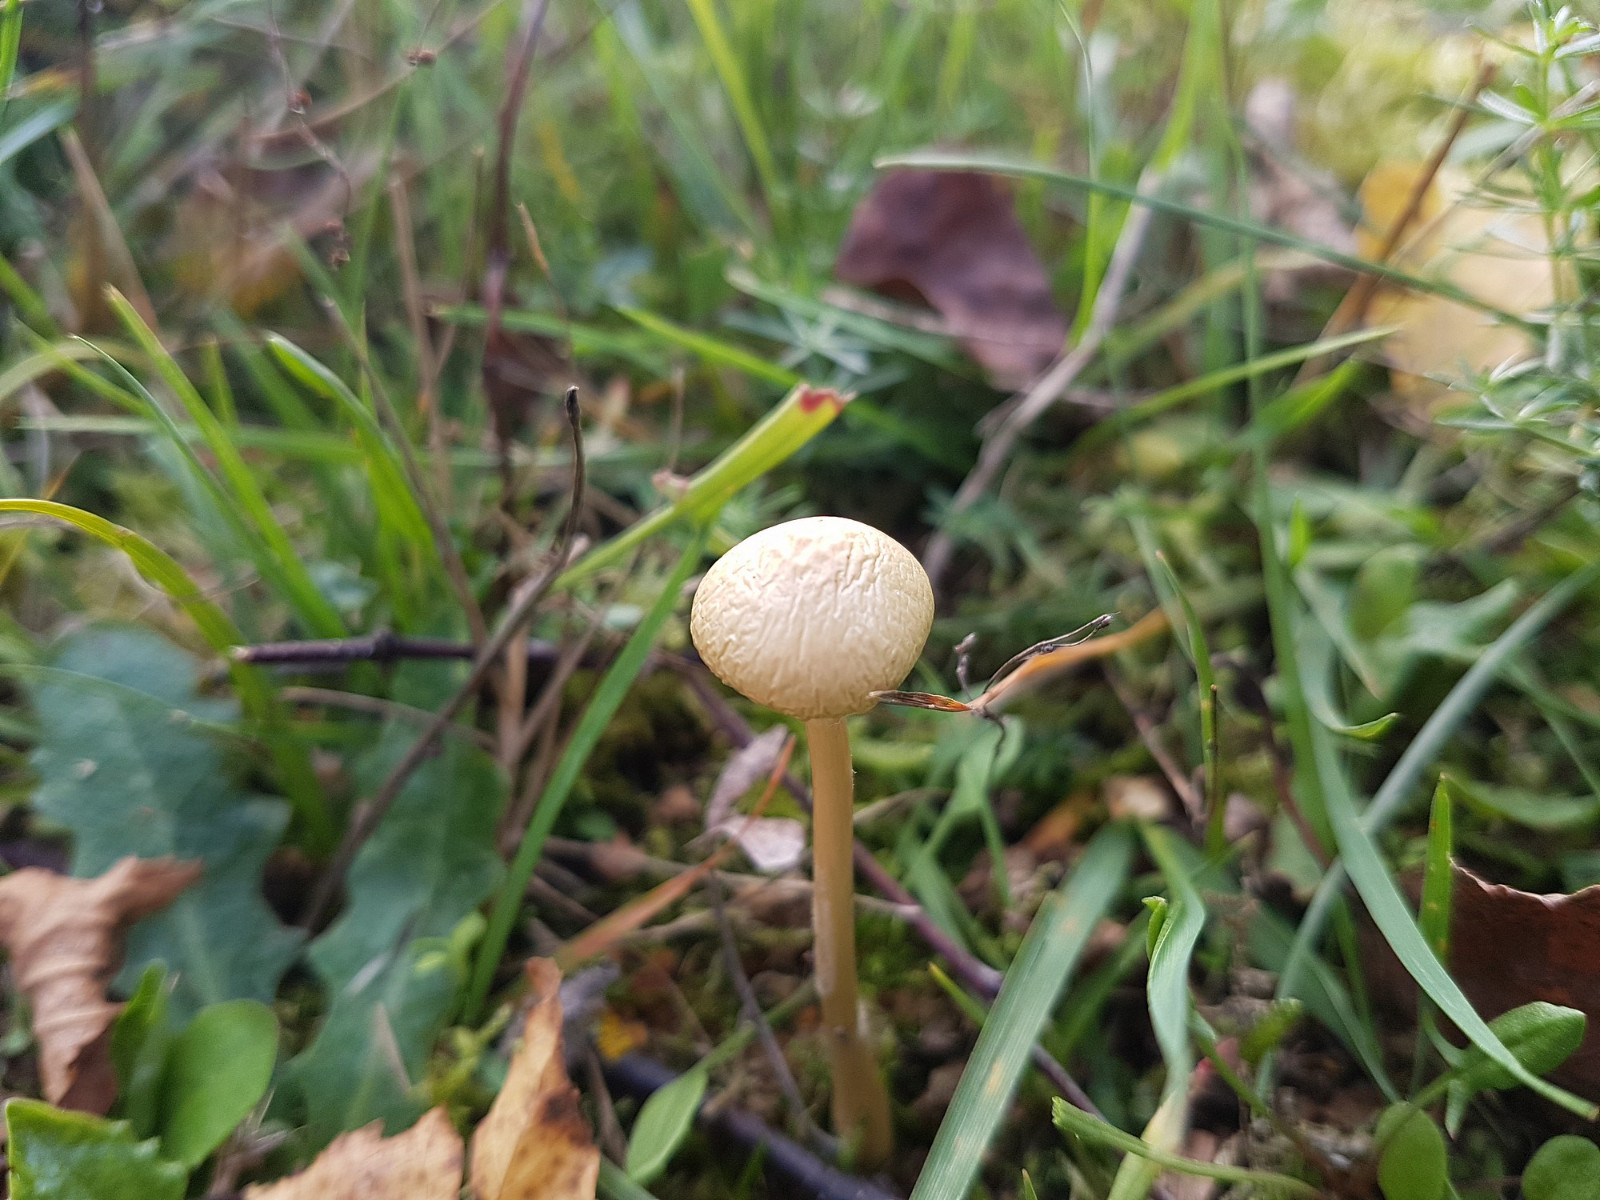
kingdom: Fungi
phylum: Basidiomycota
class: Agaricomycetes
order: Agaricales
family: Strophariaceae
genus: Protostropharia
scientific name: Protostropharia semiglobata
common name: halvkugleformet bredblad
